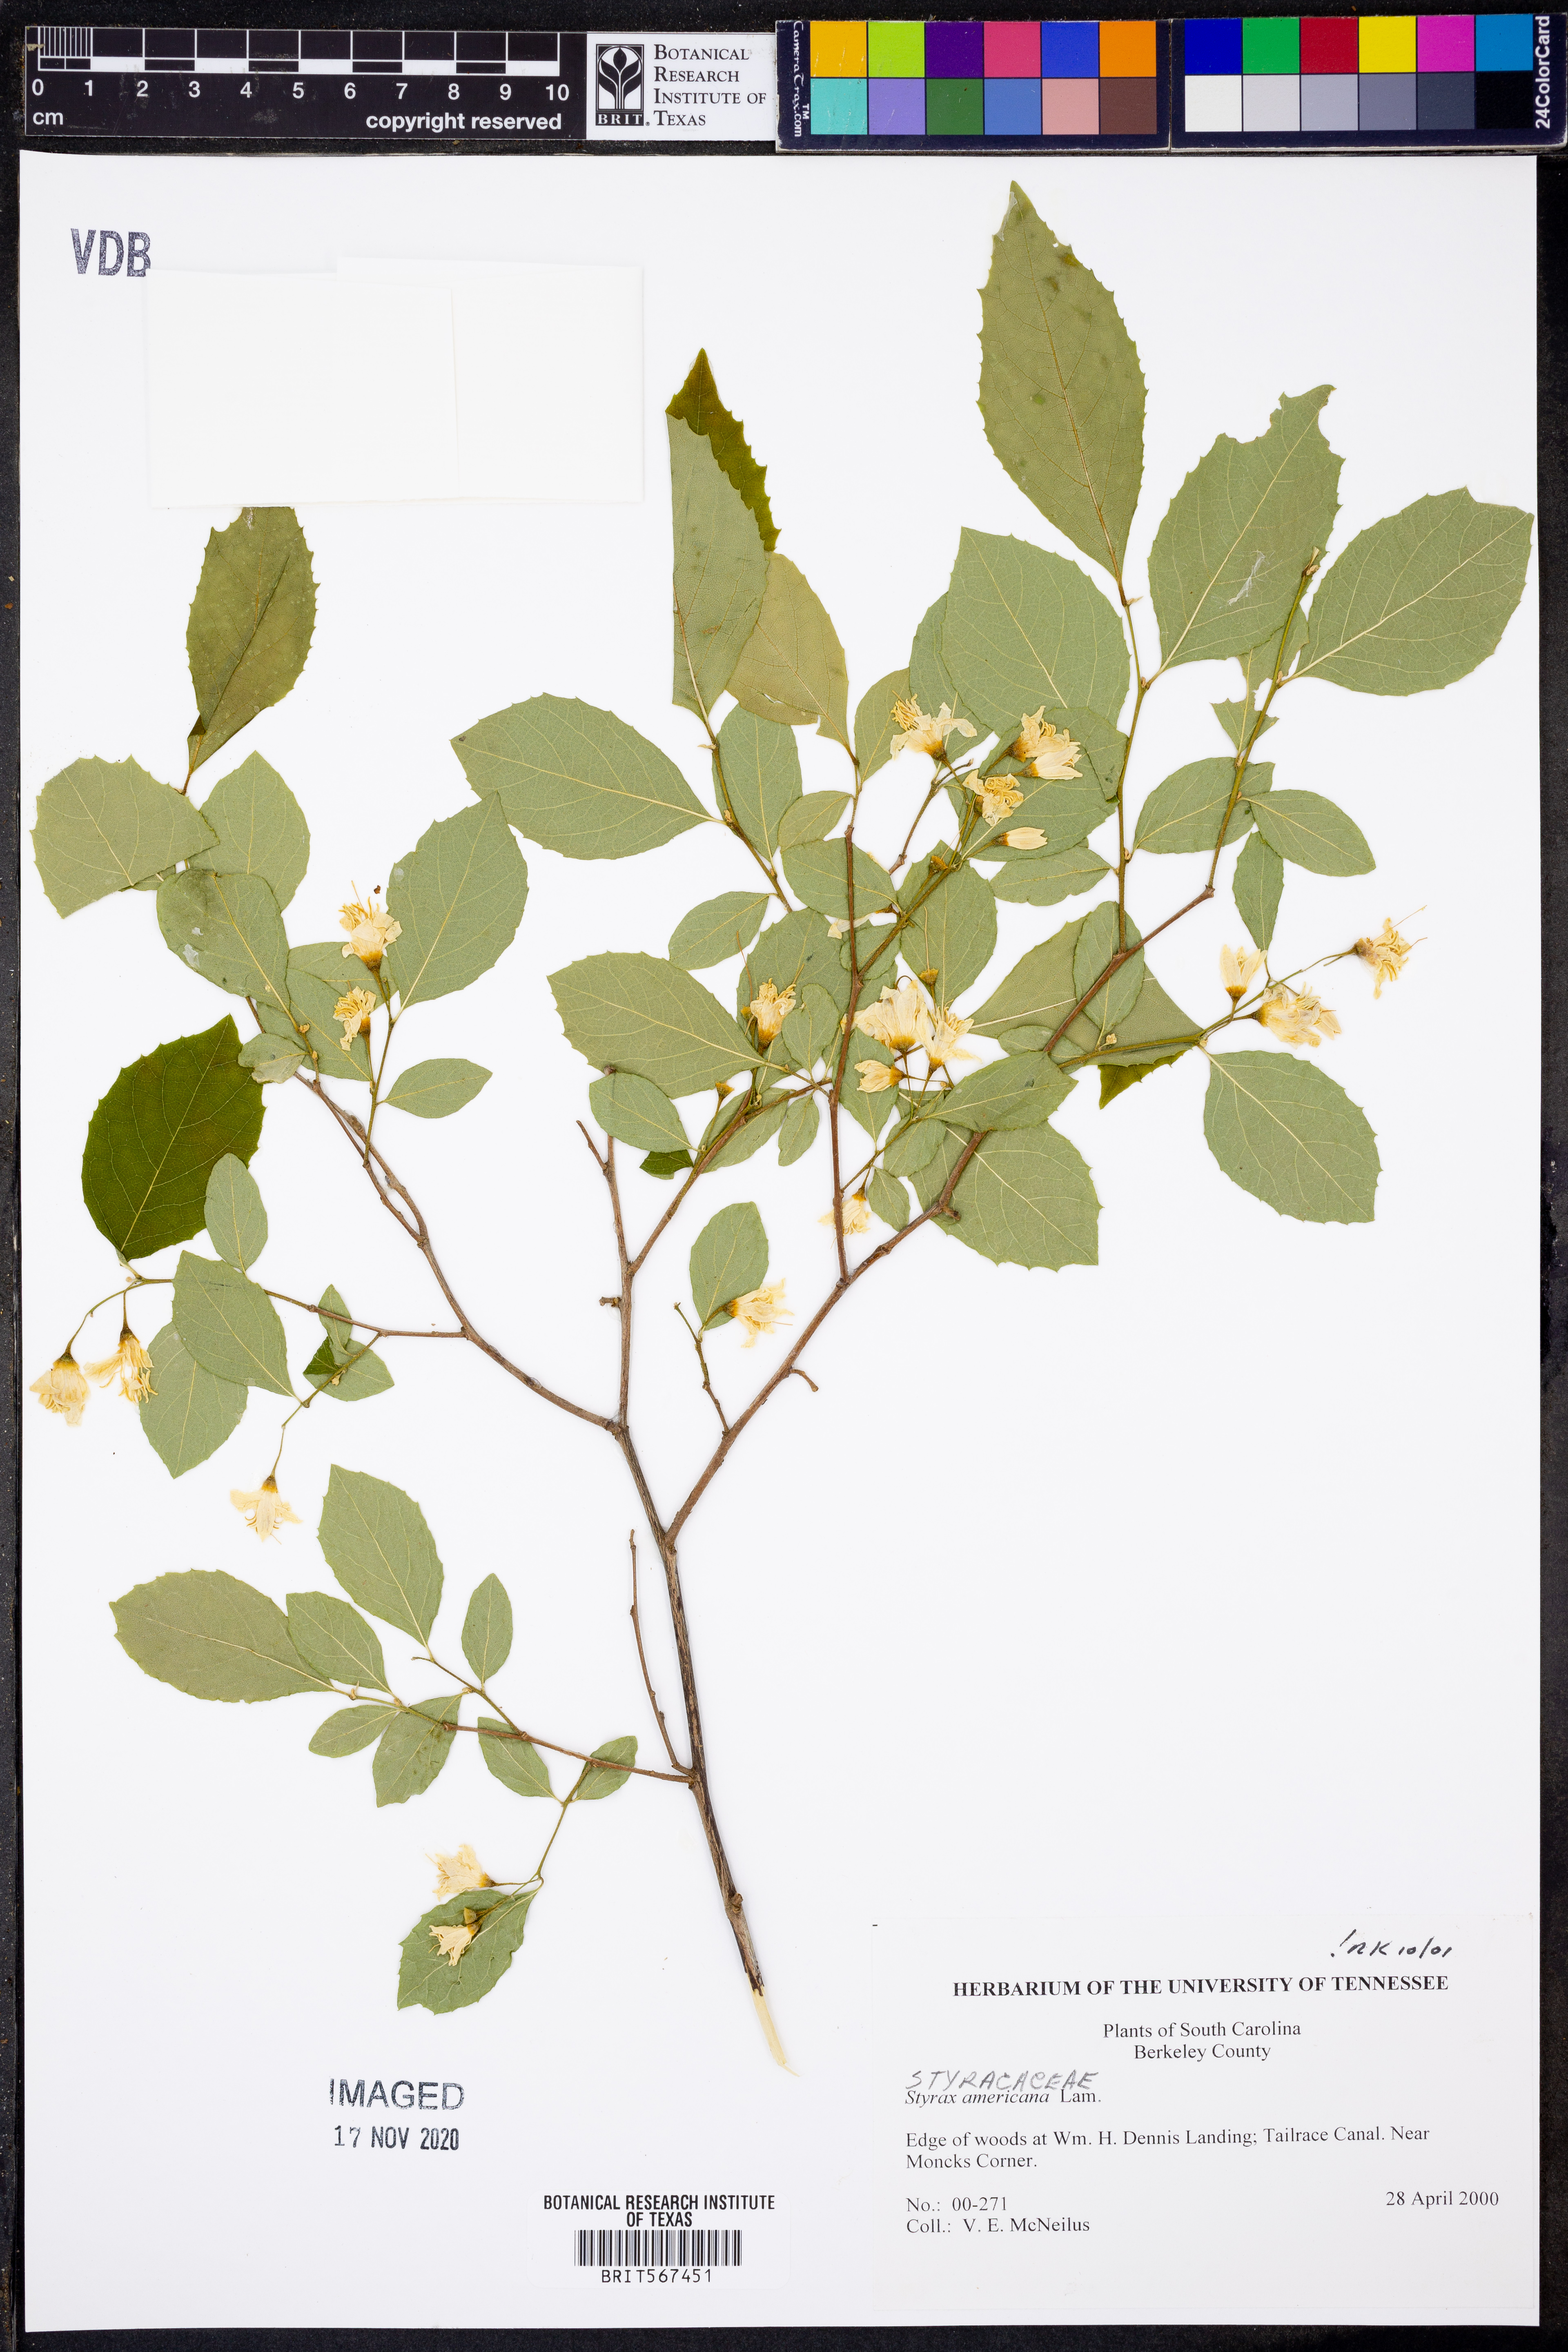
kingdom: Plantae
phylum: Tracheophyta
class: Magnoliopsida
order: Ericales
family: Styracaceae
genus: Styrax
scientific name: Styrax americanus
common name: American snowbell
